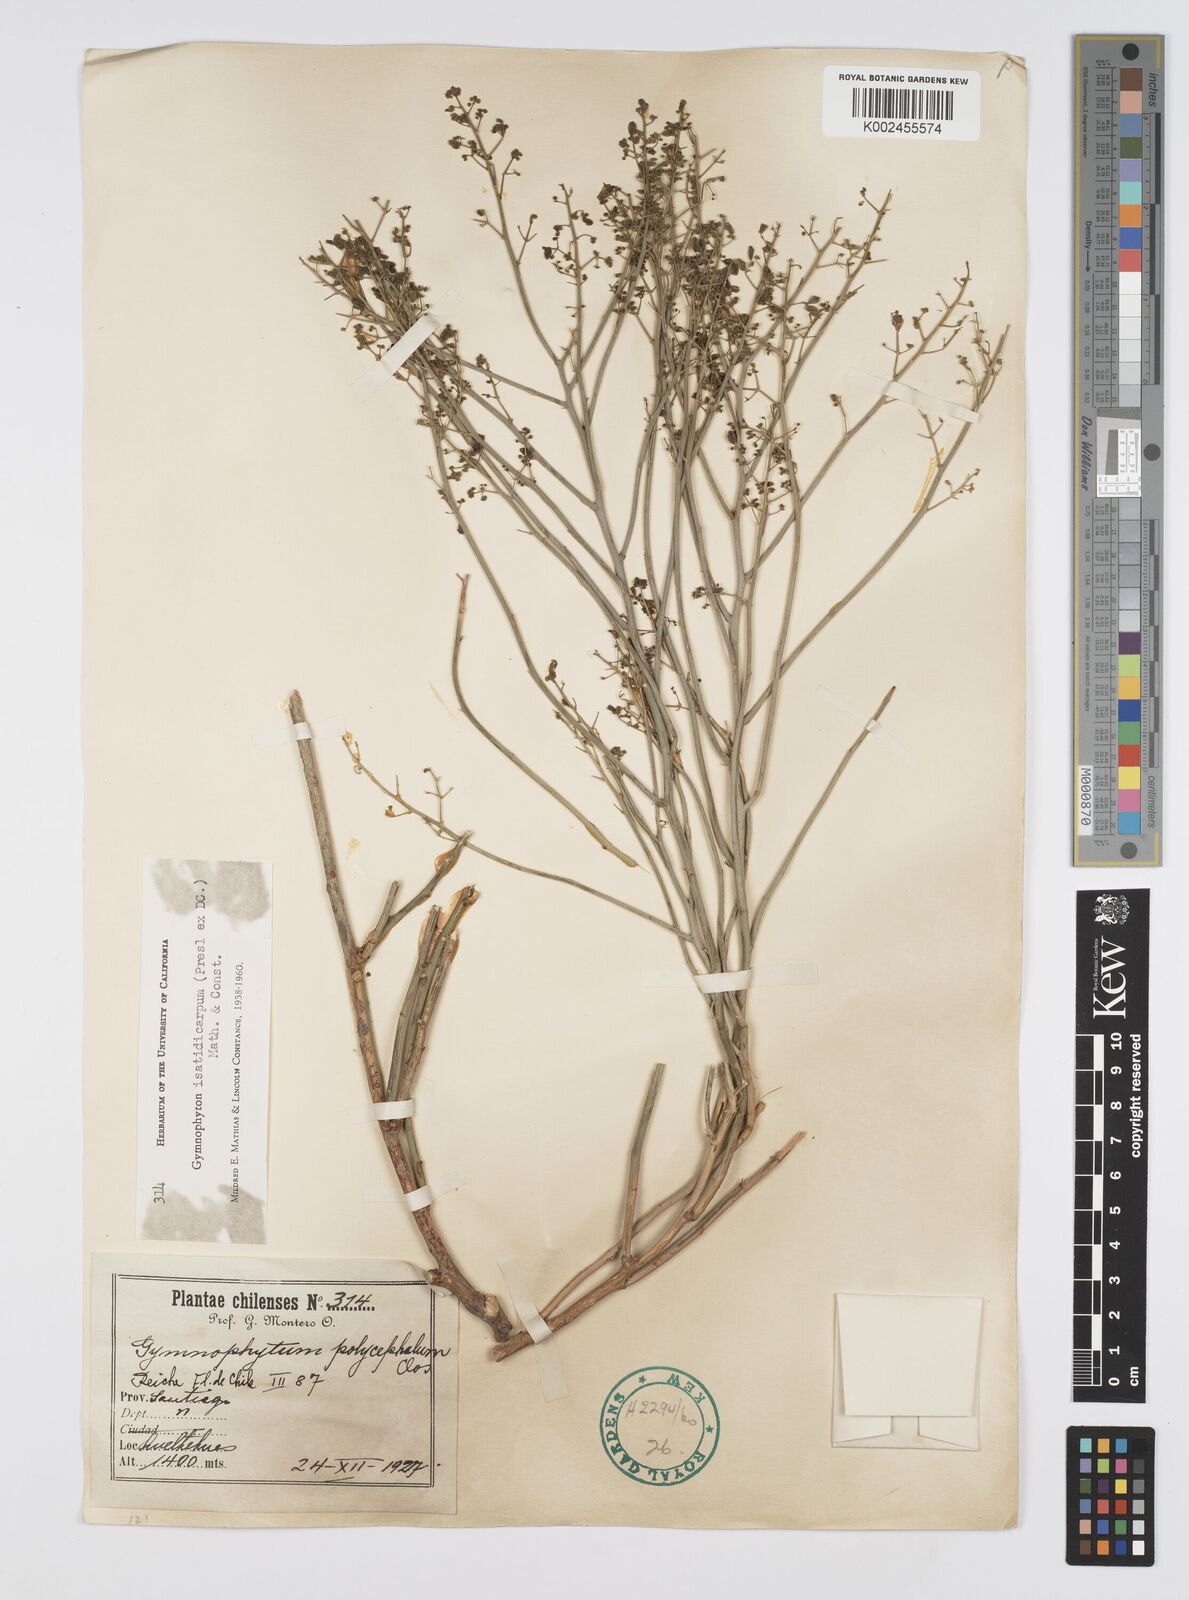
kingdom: Plantae
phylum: Tracheophyta
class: Magnoliopsida
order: Apiales
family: Apiaceae
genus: Gymnophyton
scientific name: Gymnophyton isatidicarpum
